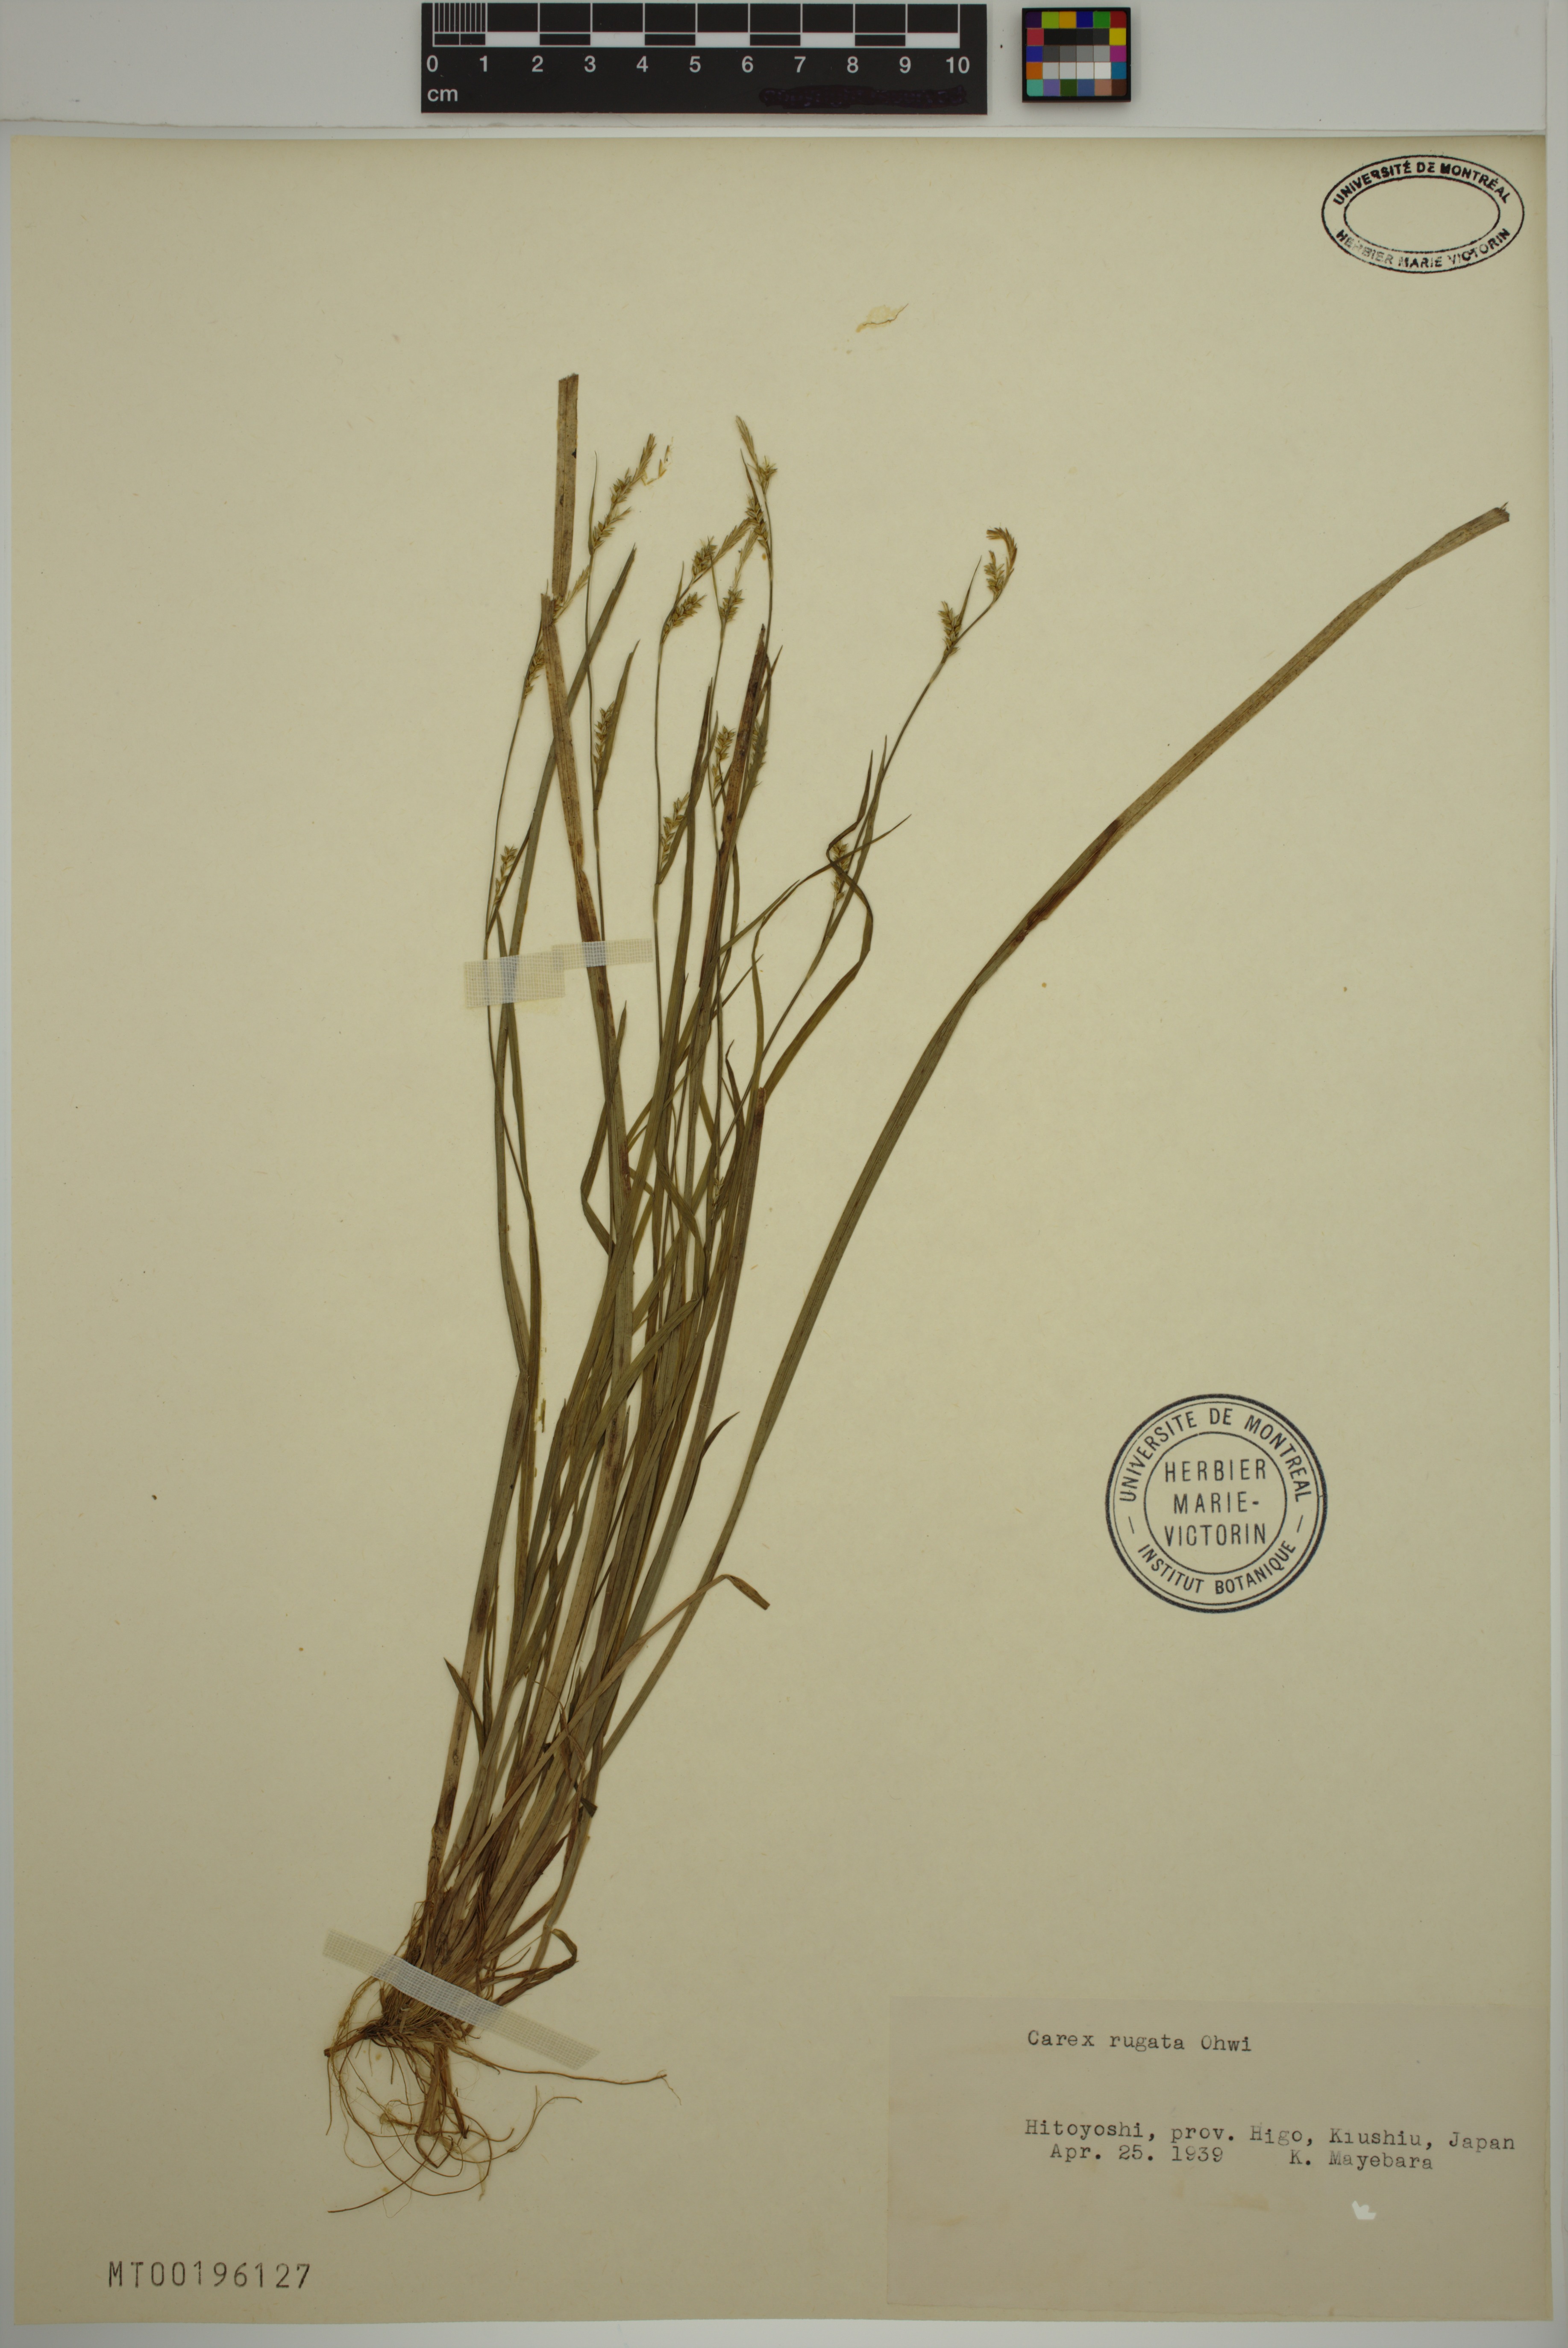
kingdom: Plantae
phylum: Tracheophyta
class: Liliopsida
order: Poales
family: Cyperaceae
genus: Carex
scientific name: Carex rugata
